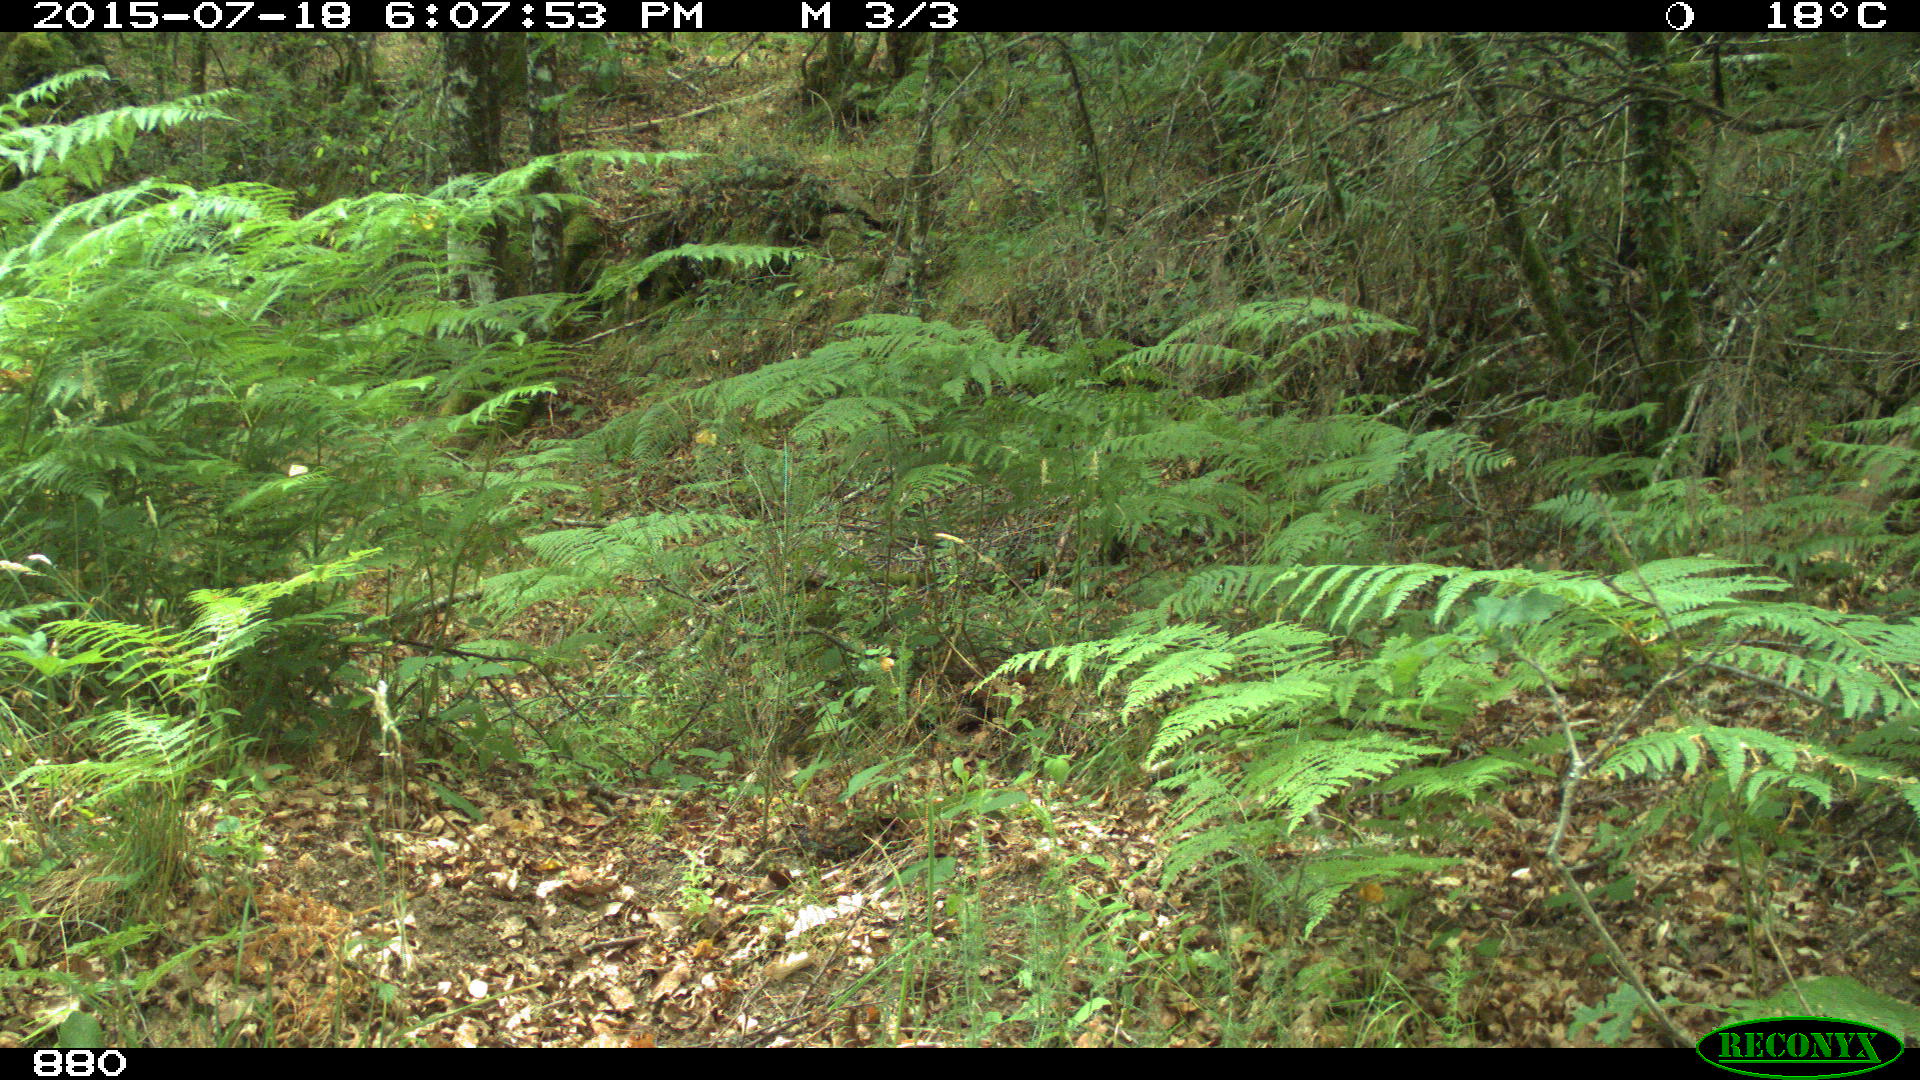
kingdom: Animalia
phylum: Chordata
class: Mammalia
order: Artiodactyla
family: Cervidae
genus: Capreolus
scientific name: Capreolus capreolus
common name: Western roe deer
